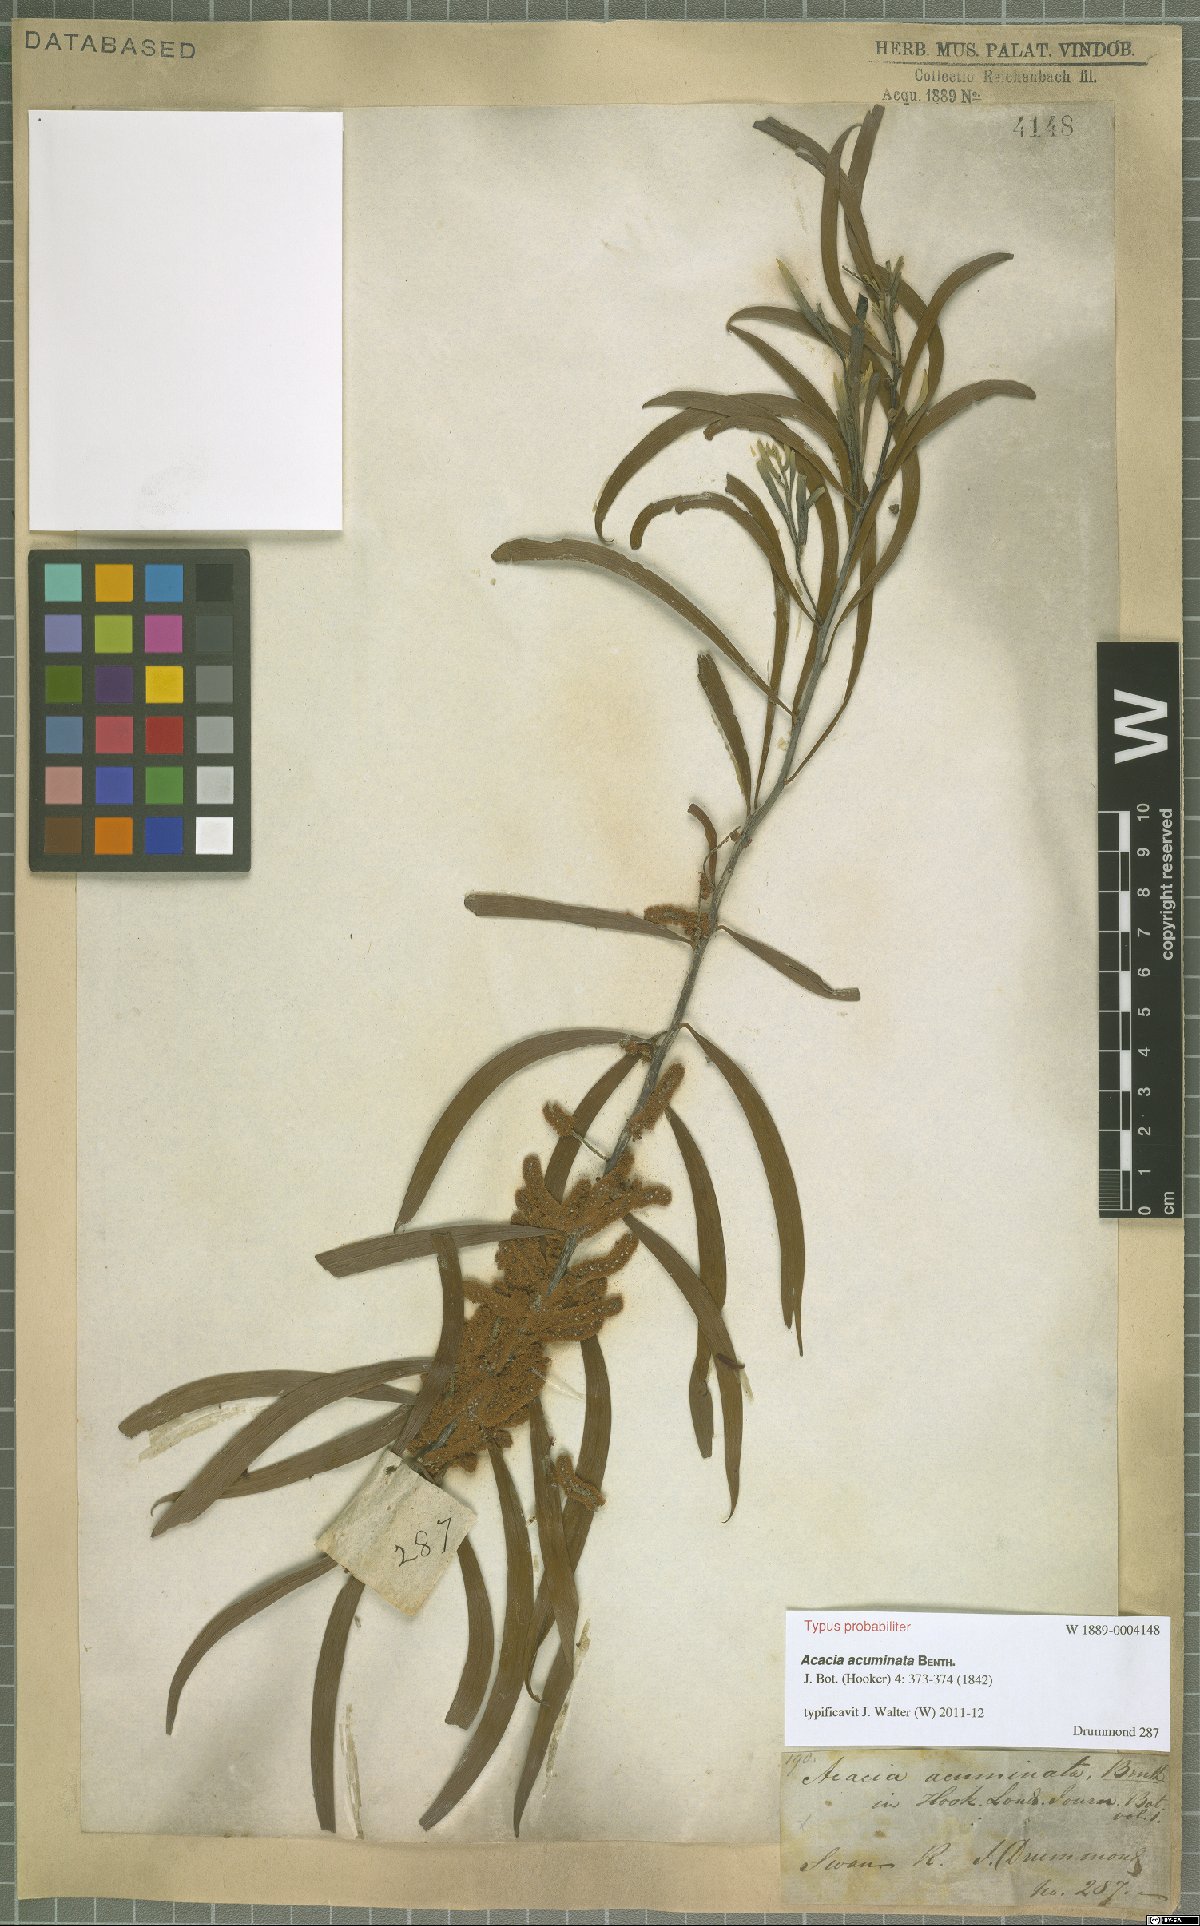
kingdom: Plantae
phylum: Tracheophyta
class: Magnoliopsida
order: Fabales
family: Fabaceae
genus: Acacia
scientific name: Acacia acuminata
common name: Jam wattle
